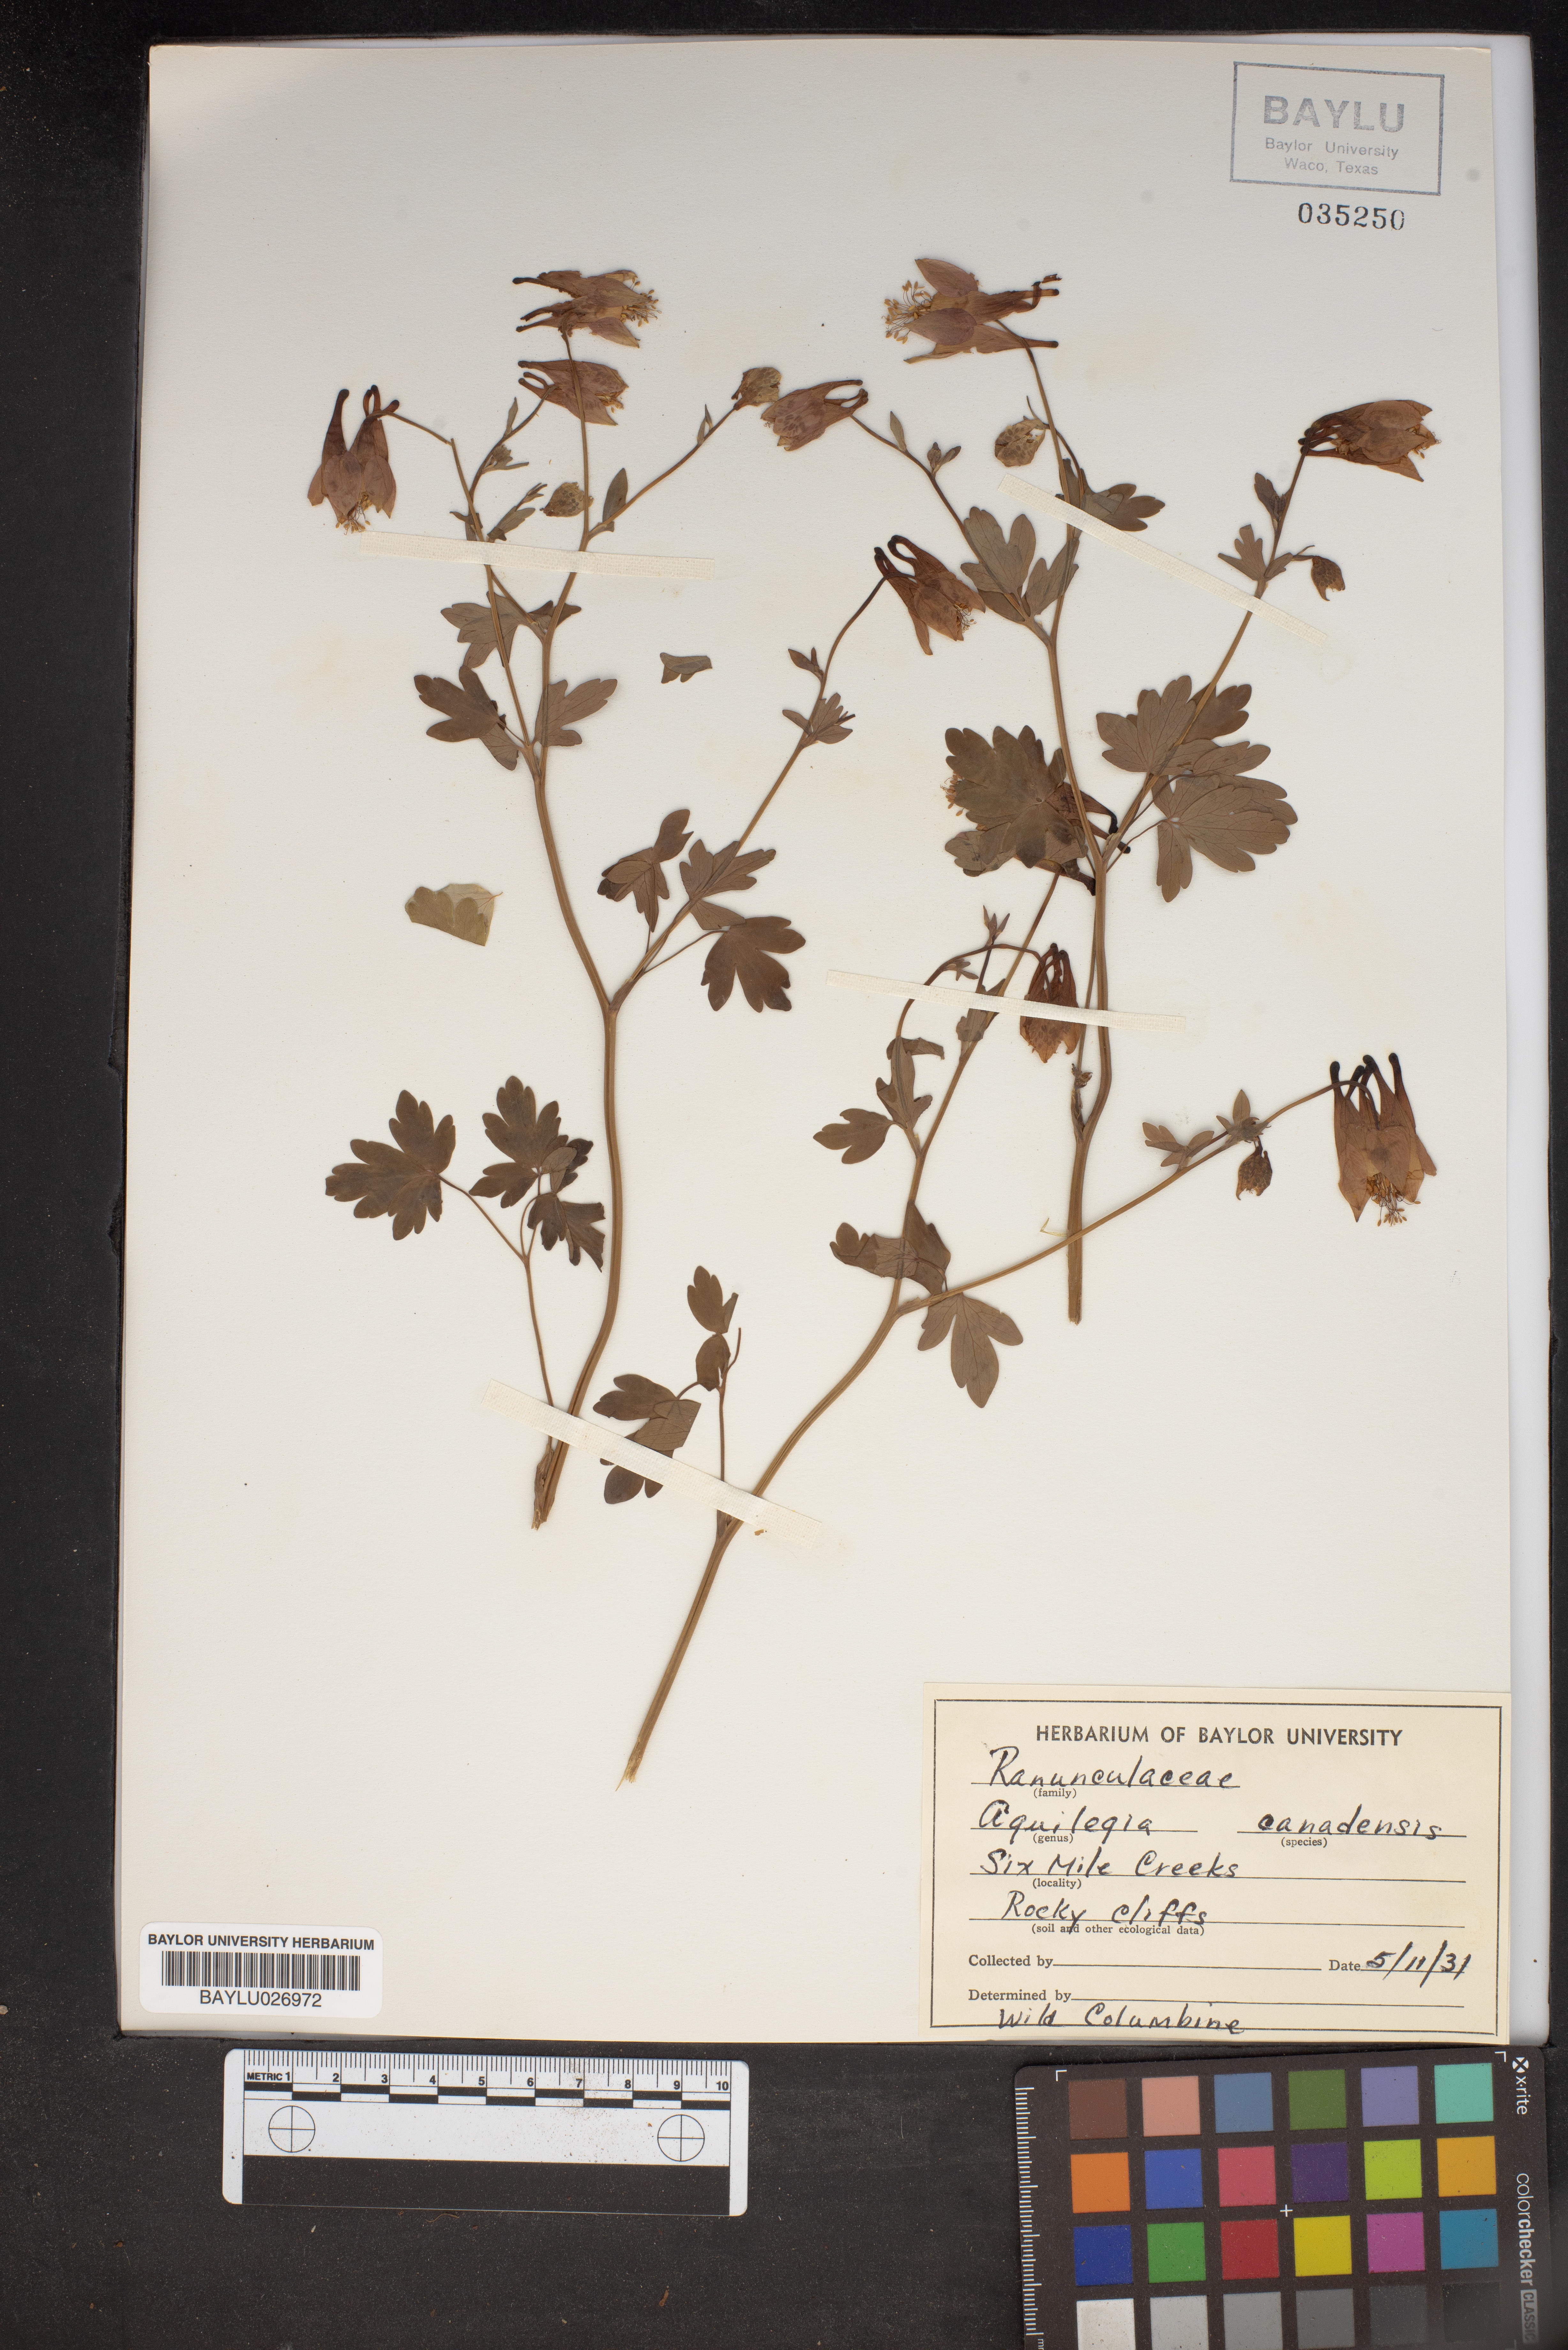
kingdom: Plantae
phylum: Tracheophyta
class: Magnoliopsida
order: Ranunculales
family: Ranunculaceae
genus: Aquilegia
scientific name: Aquilegia canadensis
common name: American columbine
